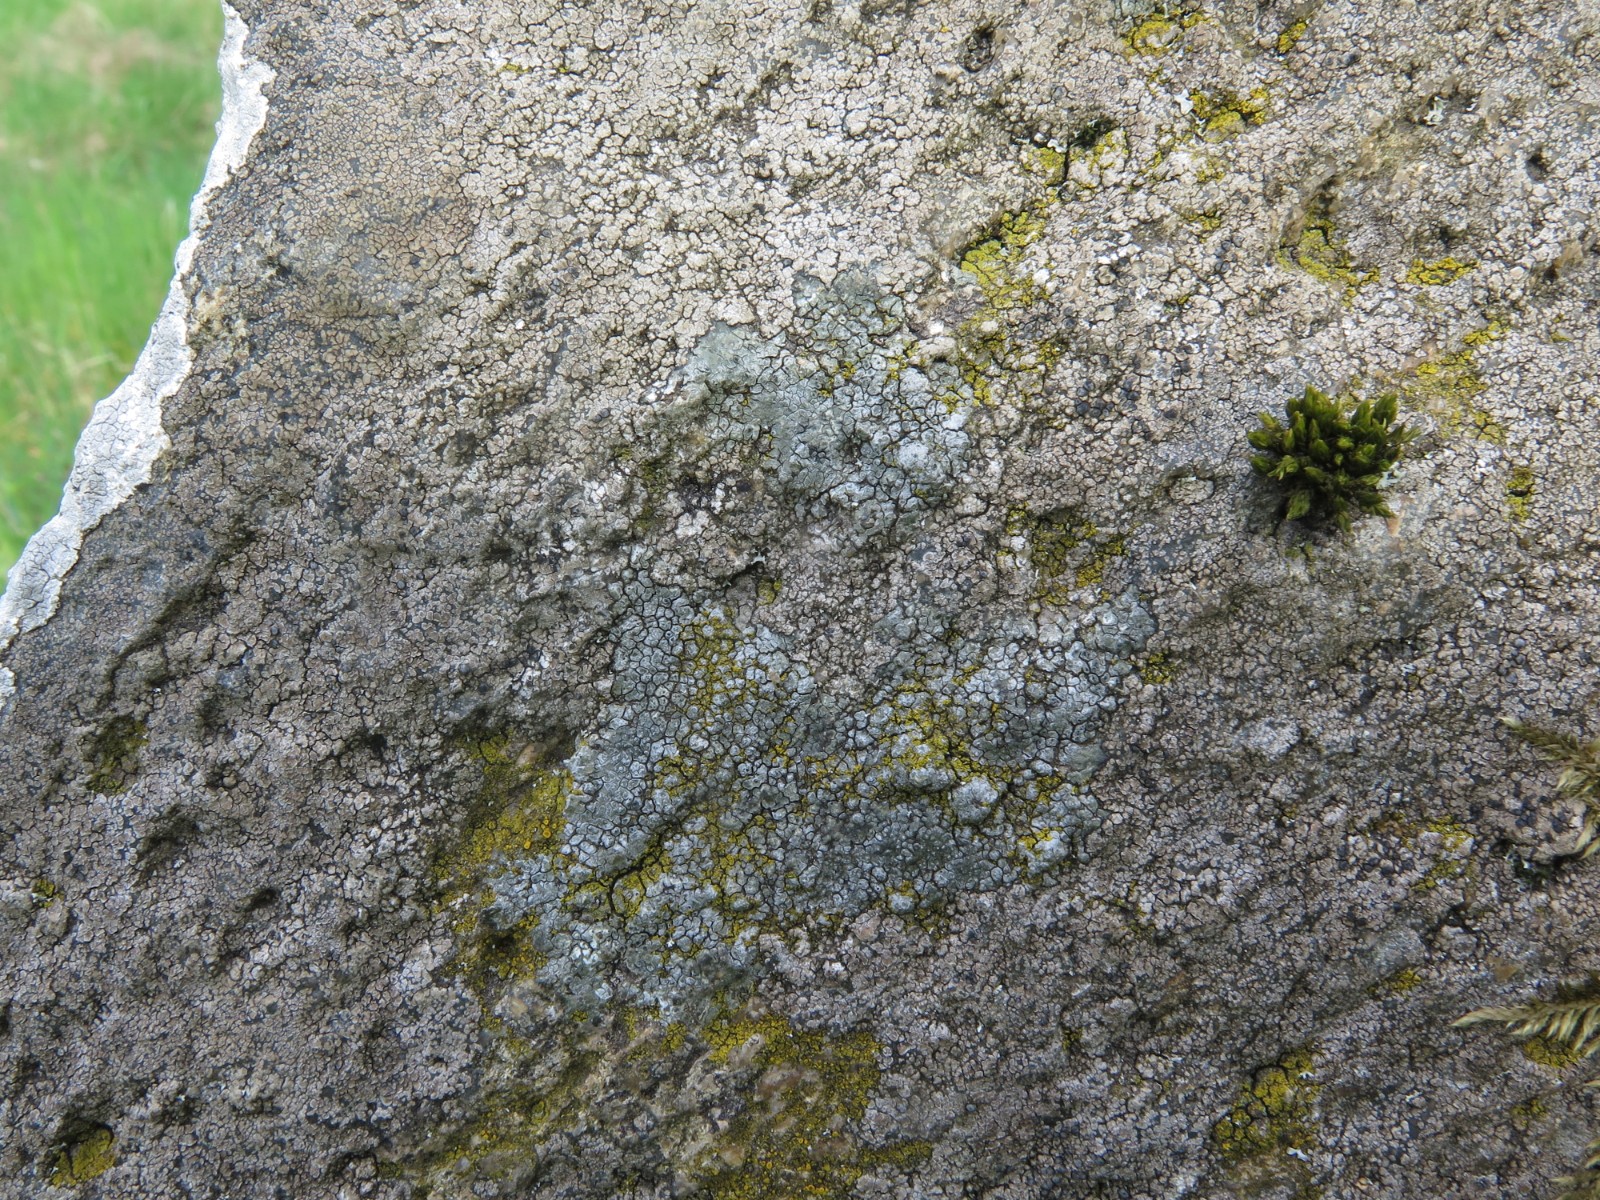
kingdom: Fungi
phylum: Ascomycota
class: Lecanoromycetes
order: Pertusariales
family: Megasporaceae
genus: Circinaria
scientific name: Circinaria caesiocinerea
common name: fuglestens-hulskivelav
